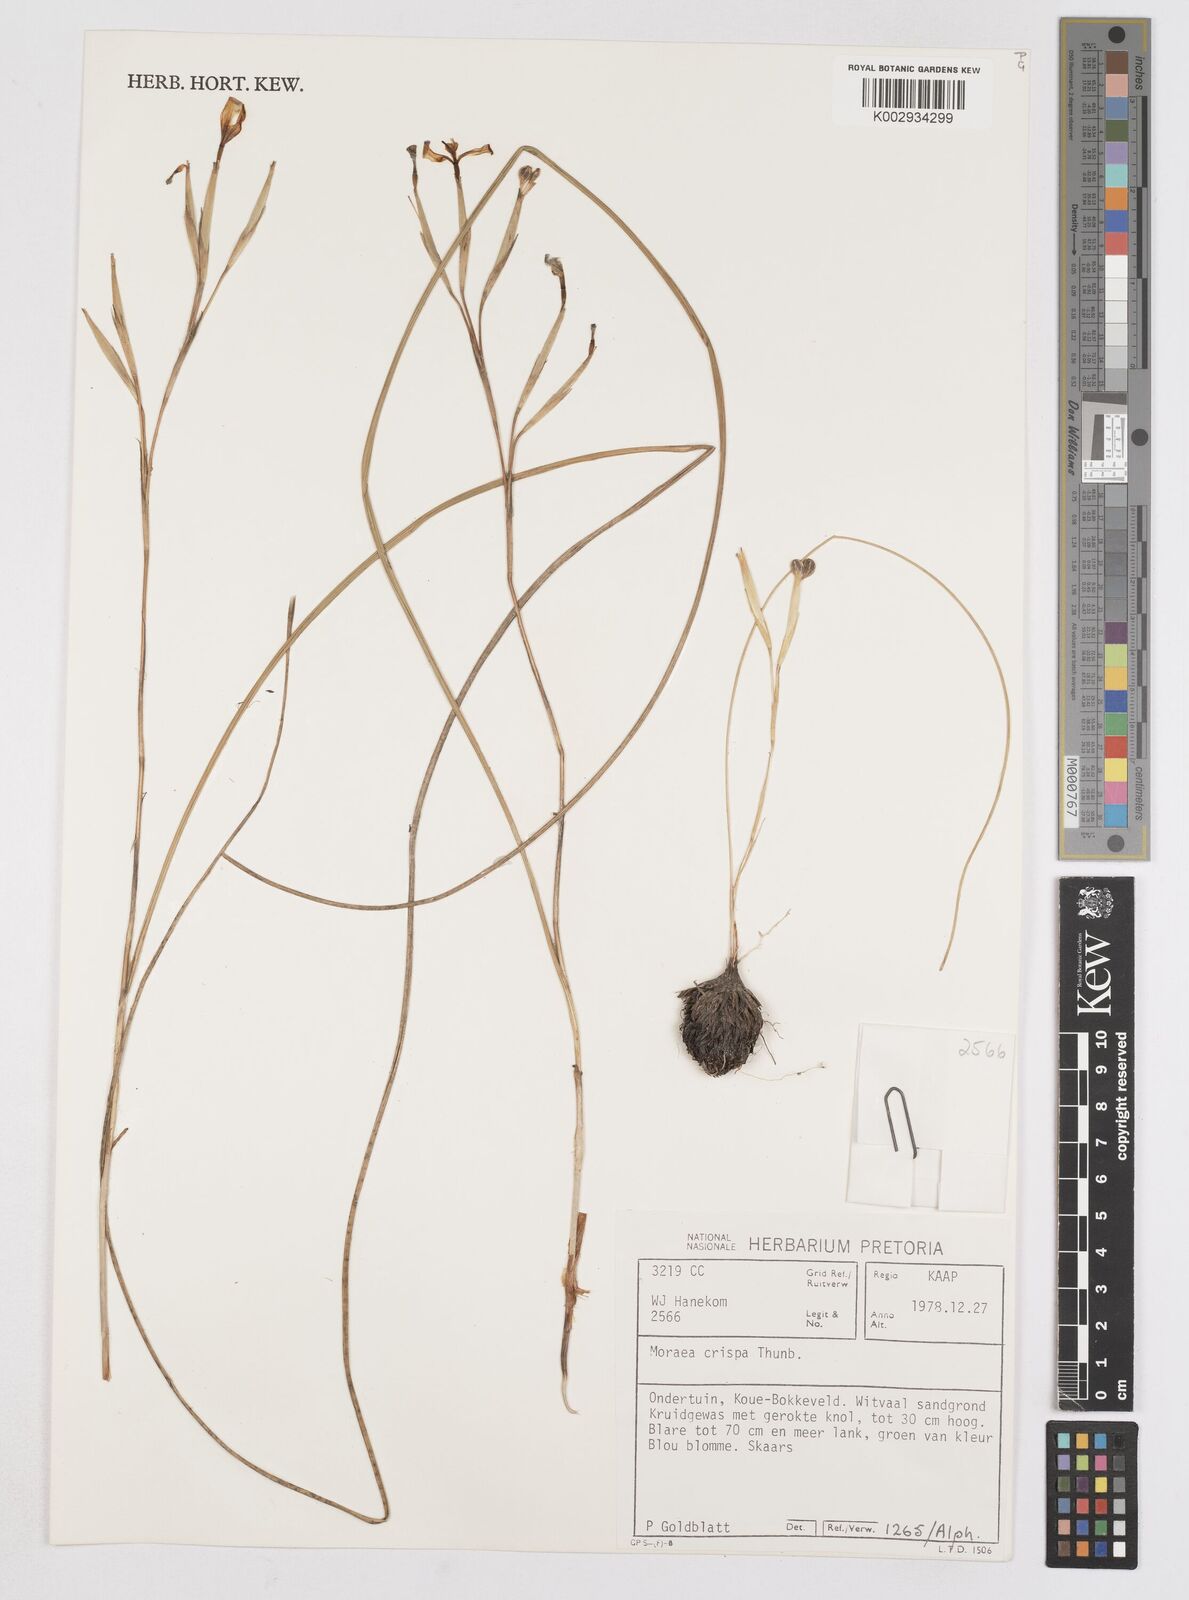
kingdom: Plantae
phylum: Tracheophyta
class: Liliopsida
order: Asparagales
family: Iridaceae
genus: Moraea
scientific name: Moraea crispa
